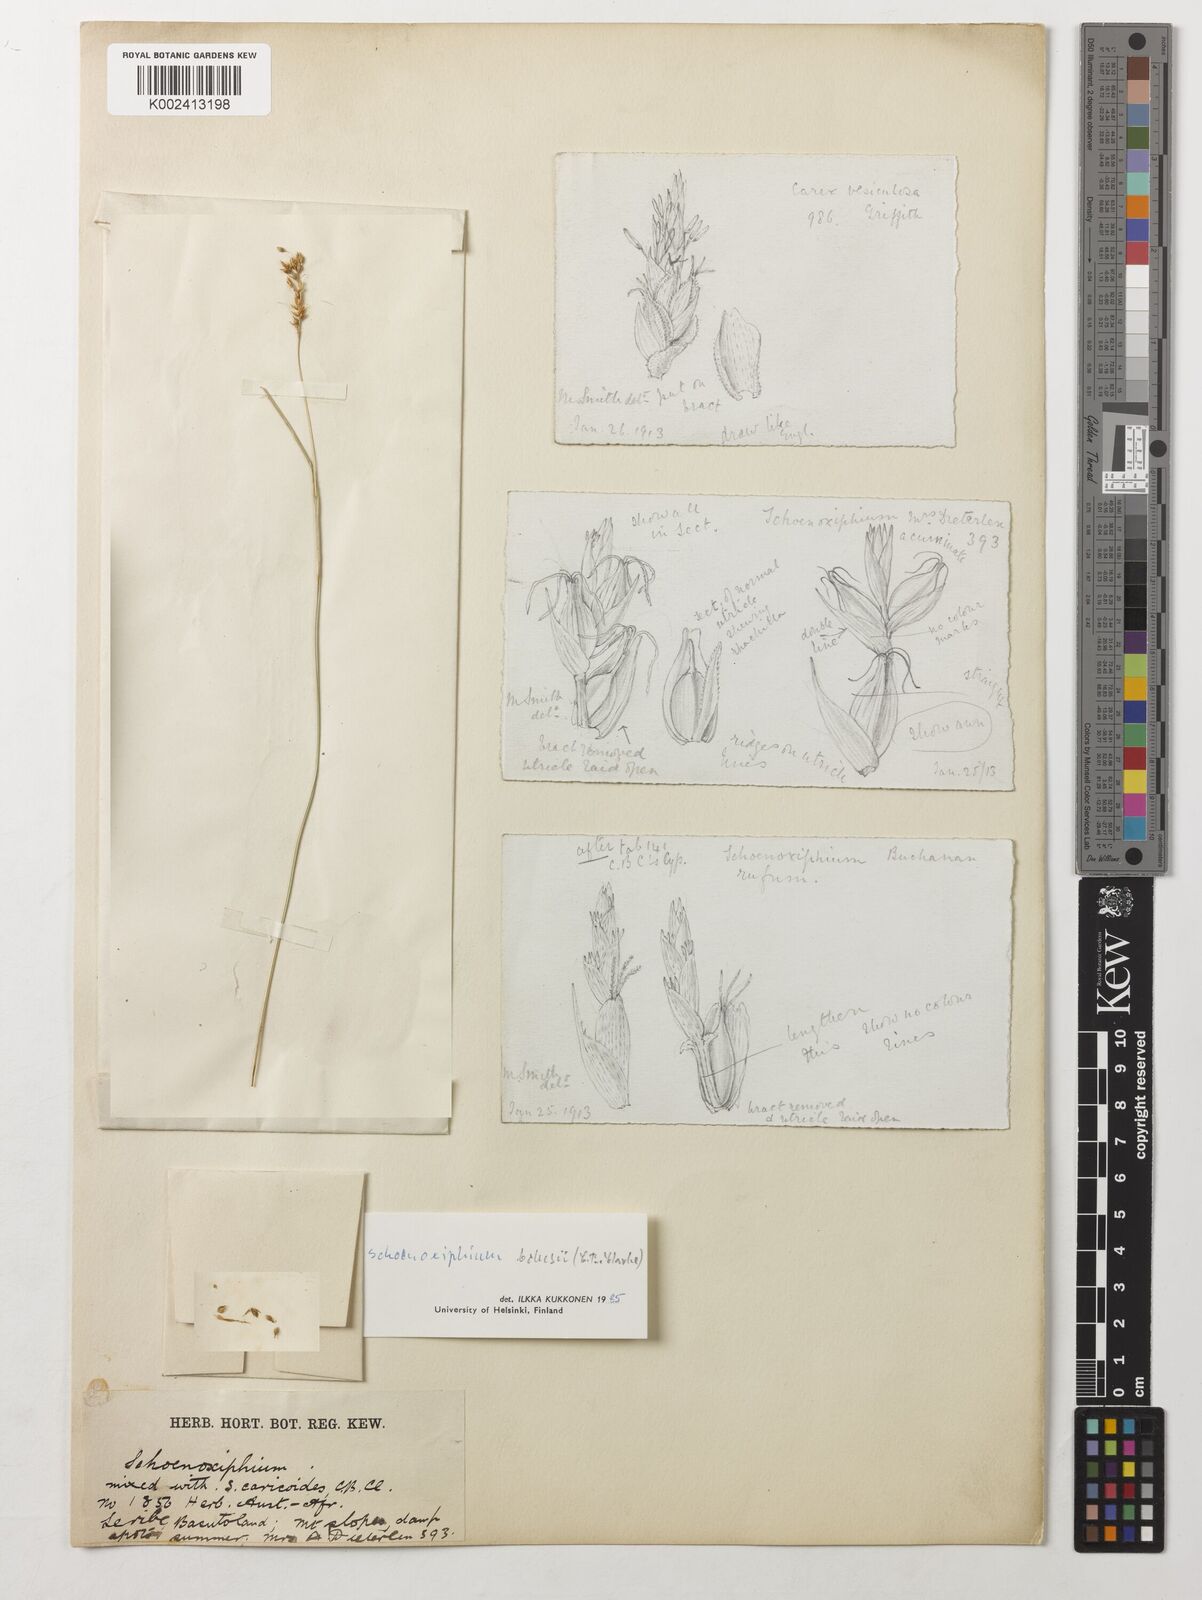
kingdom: Plantae
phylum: Tracheophyta
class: Liliopsida
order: Poales
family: Cyperaceae
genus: Carex
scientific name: Carex spartea
